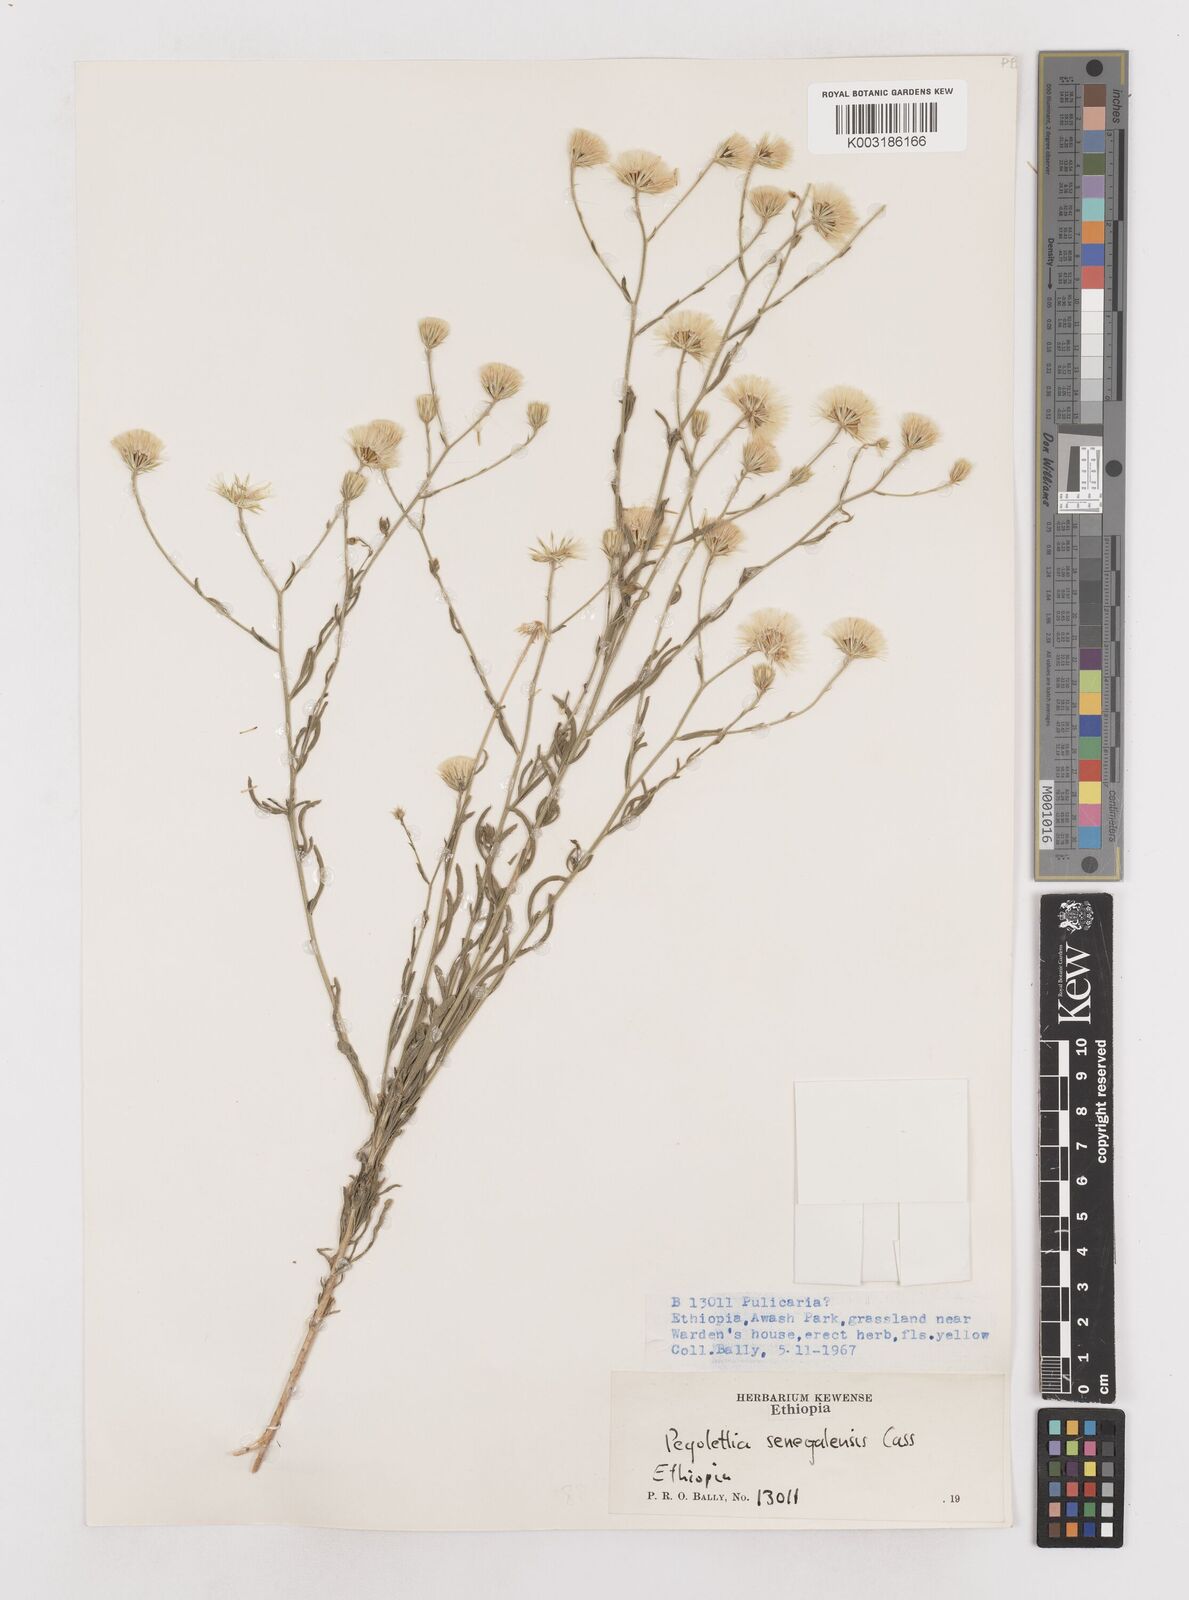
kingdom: Plantae
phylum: Tracheophyta
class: Magnoliopsida
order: Asterales
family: Asteraceae
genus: Pegolettia
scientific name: Pegolettia senegalensis
